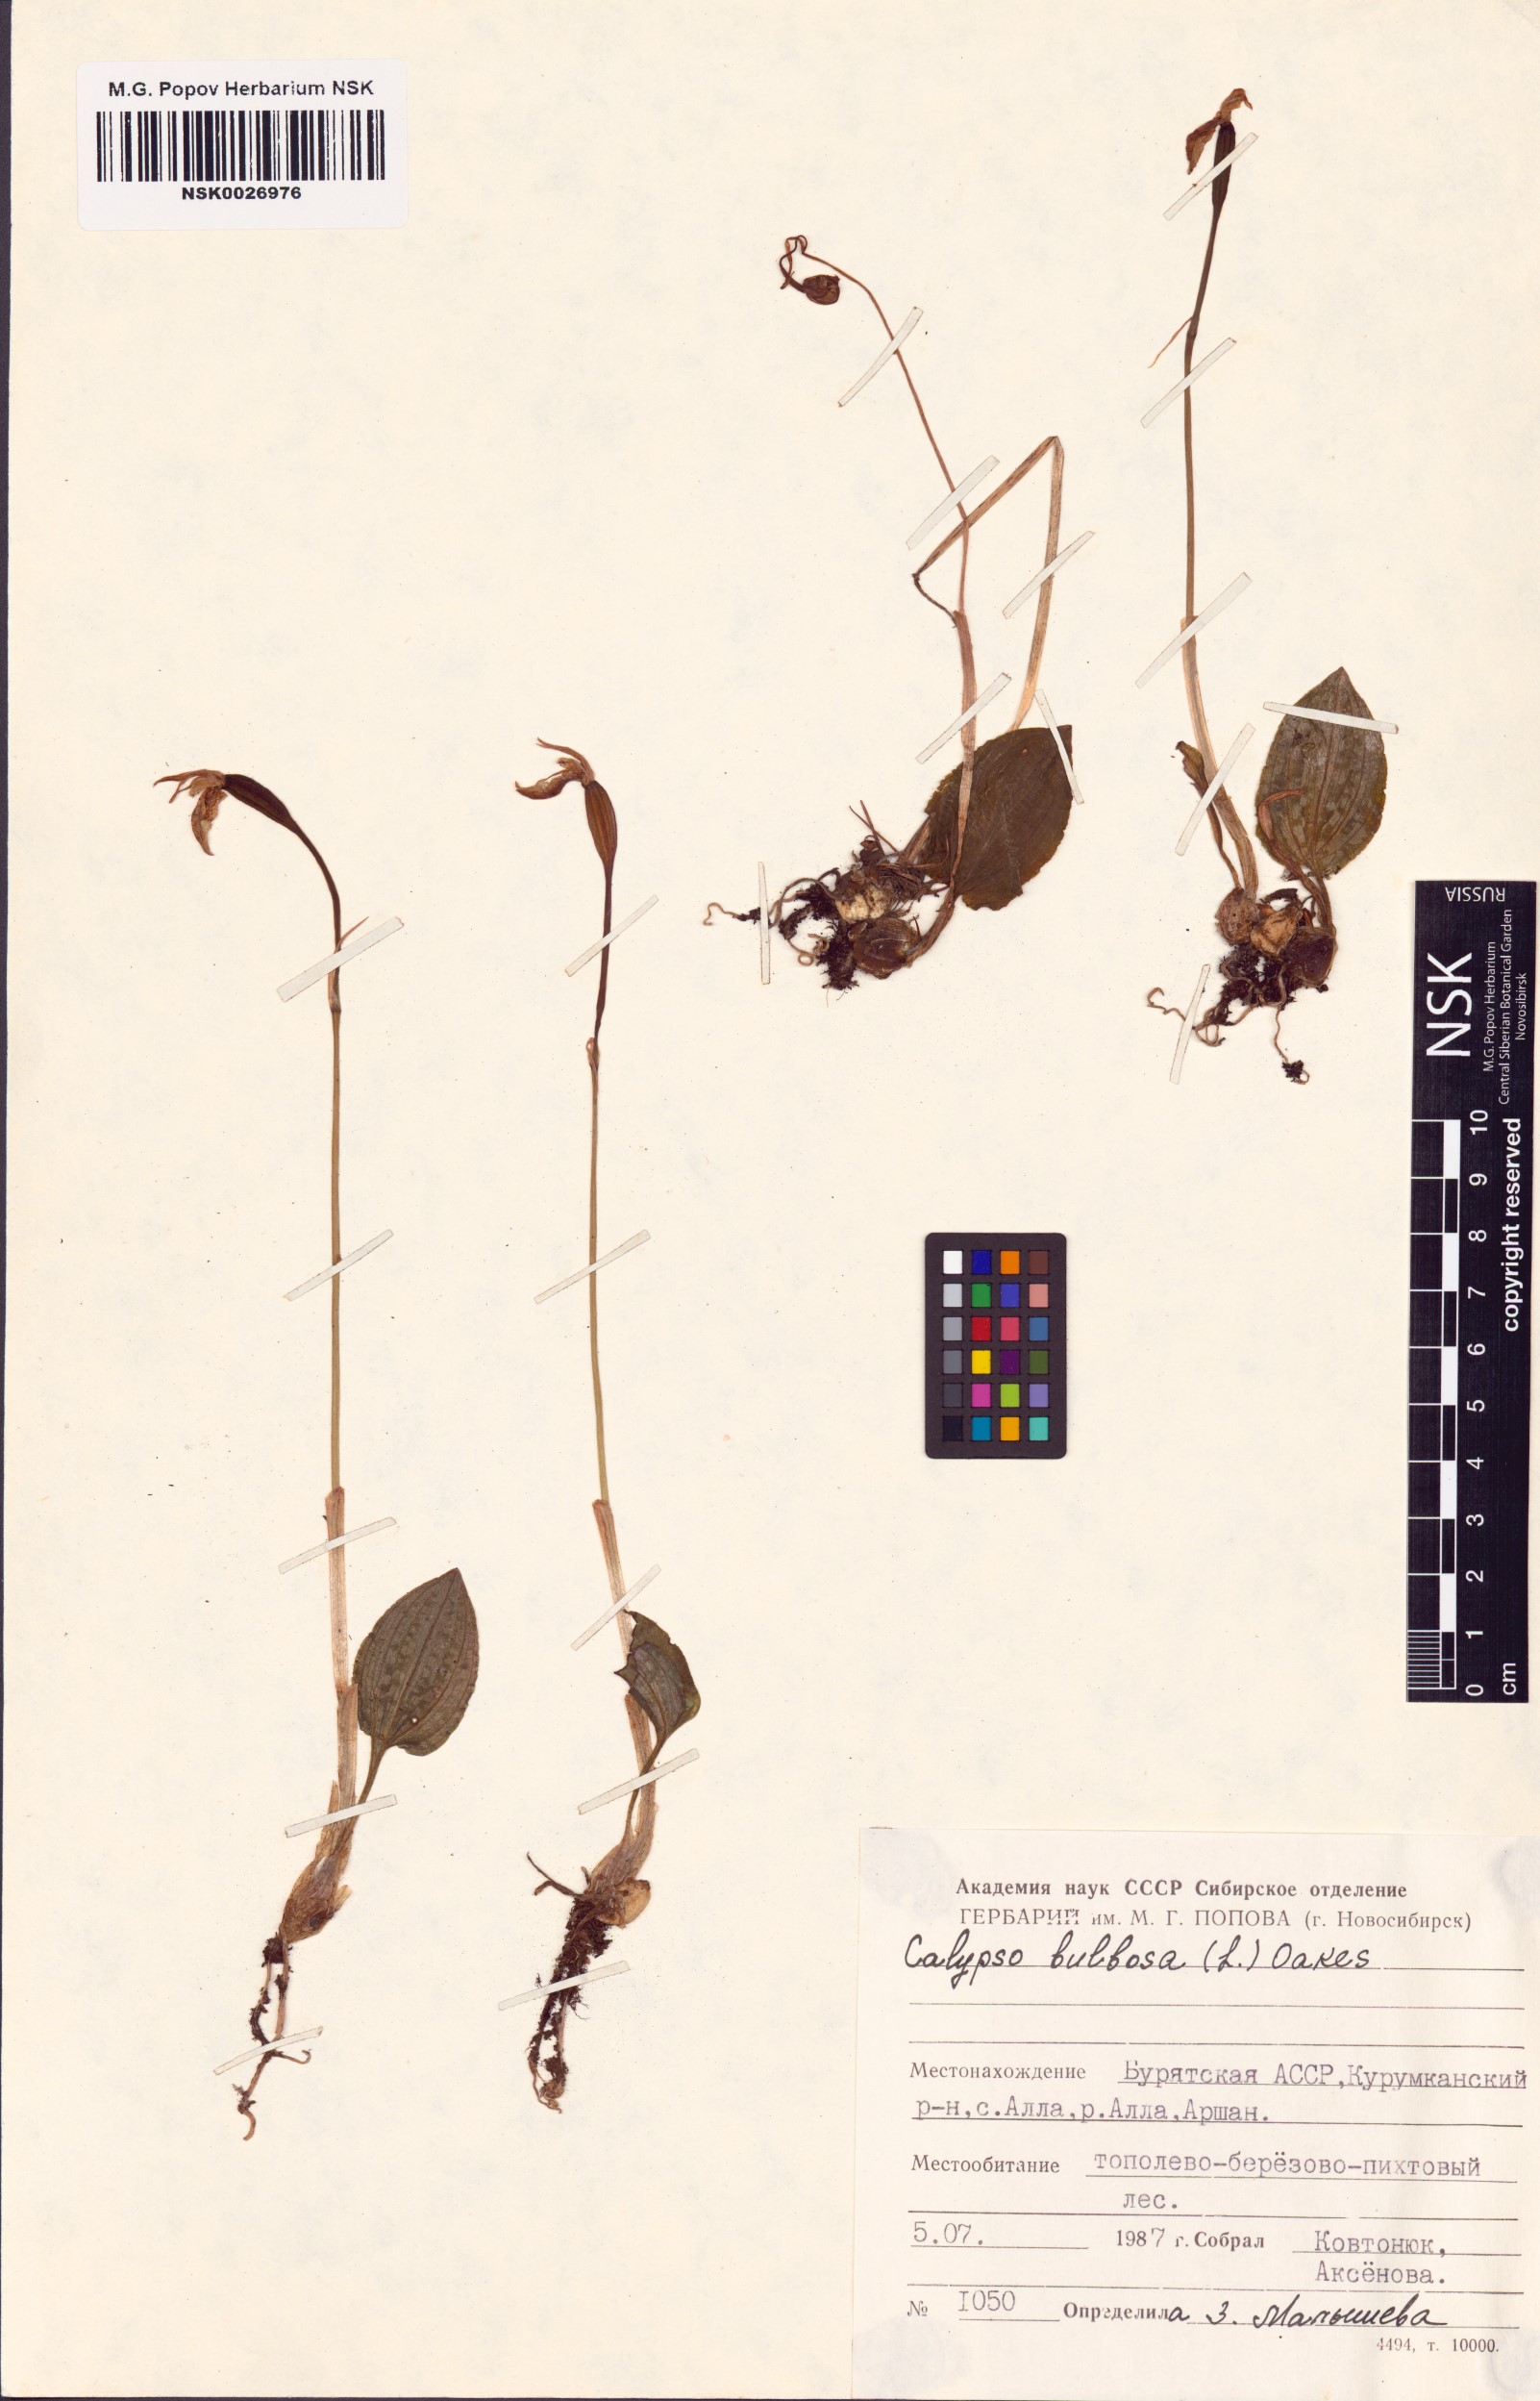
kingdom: Plantae
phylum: Tracheophyta
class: Liliopsida
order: Asparagales
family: Orchidaceae
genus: Calypso
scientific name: Calypso bulbosa
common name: Calypso
